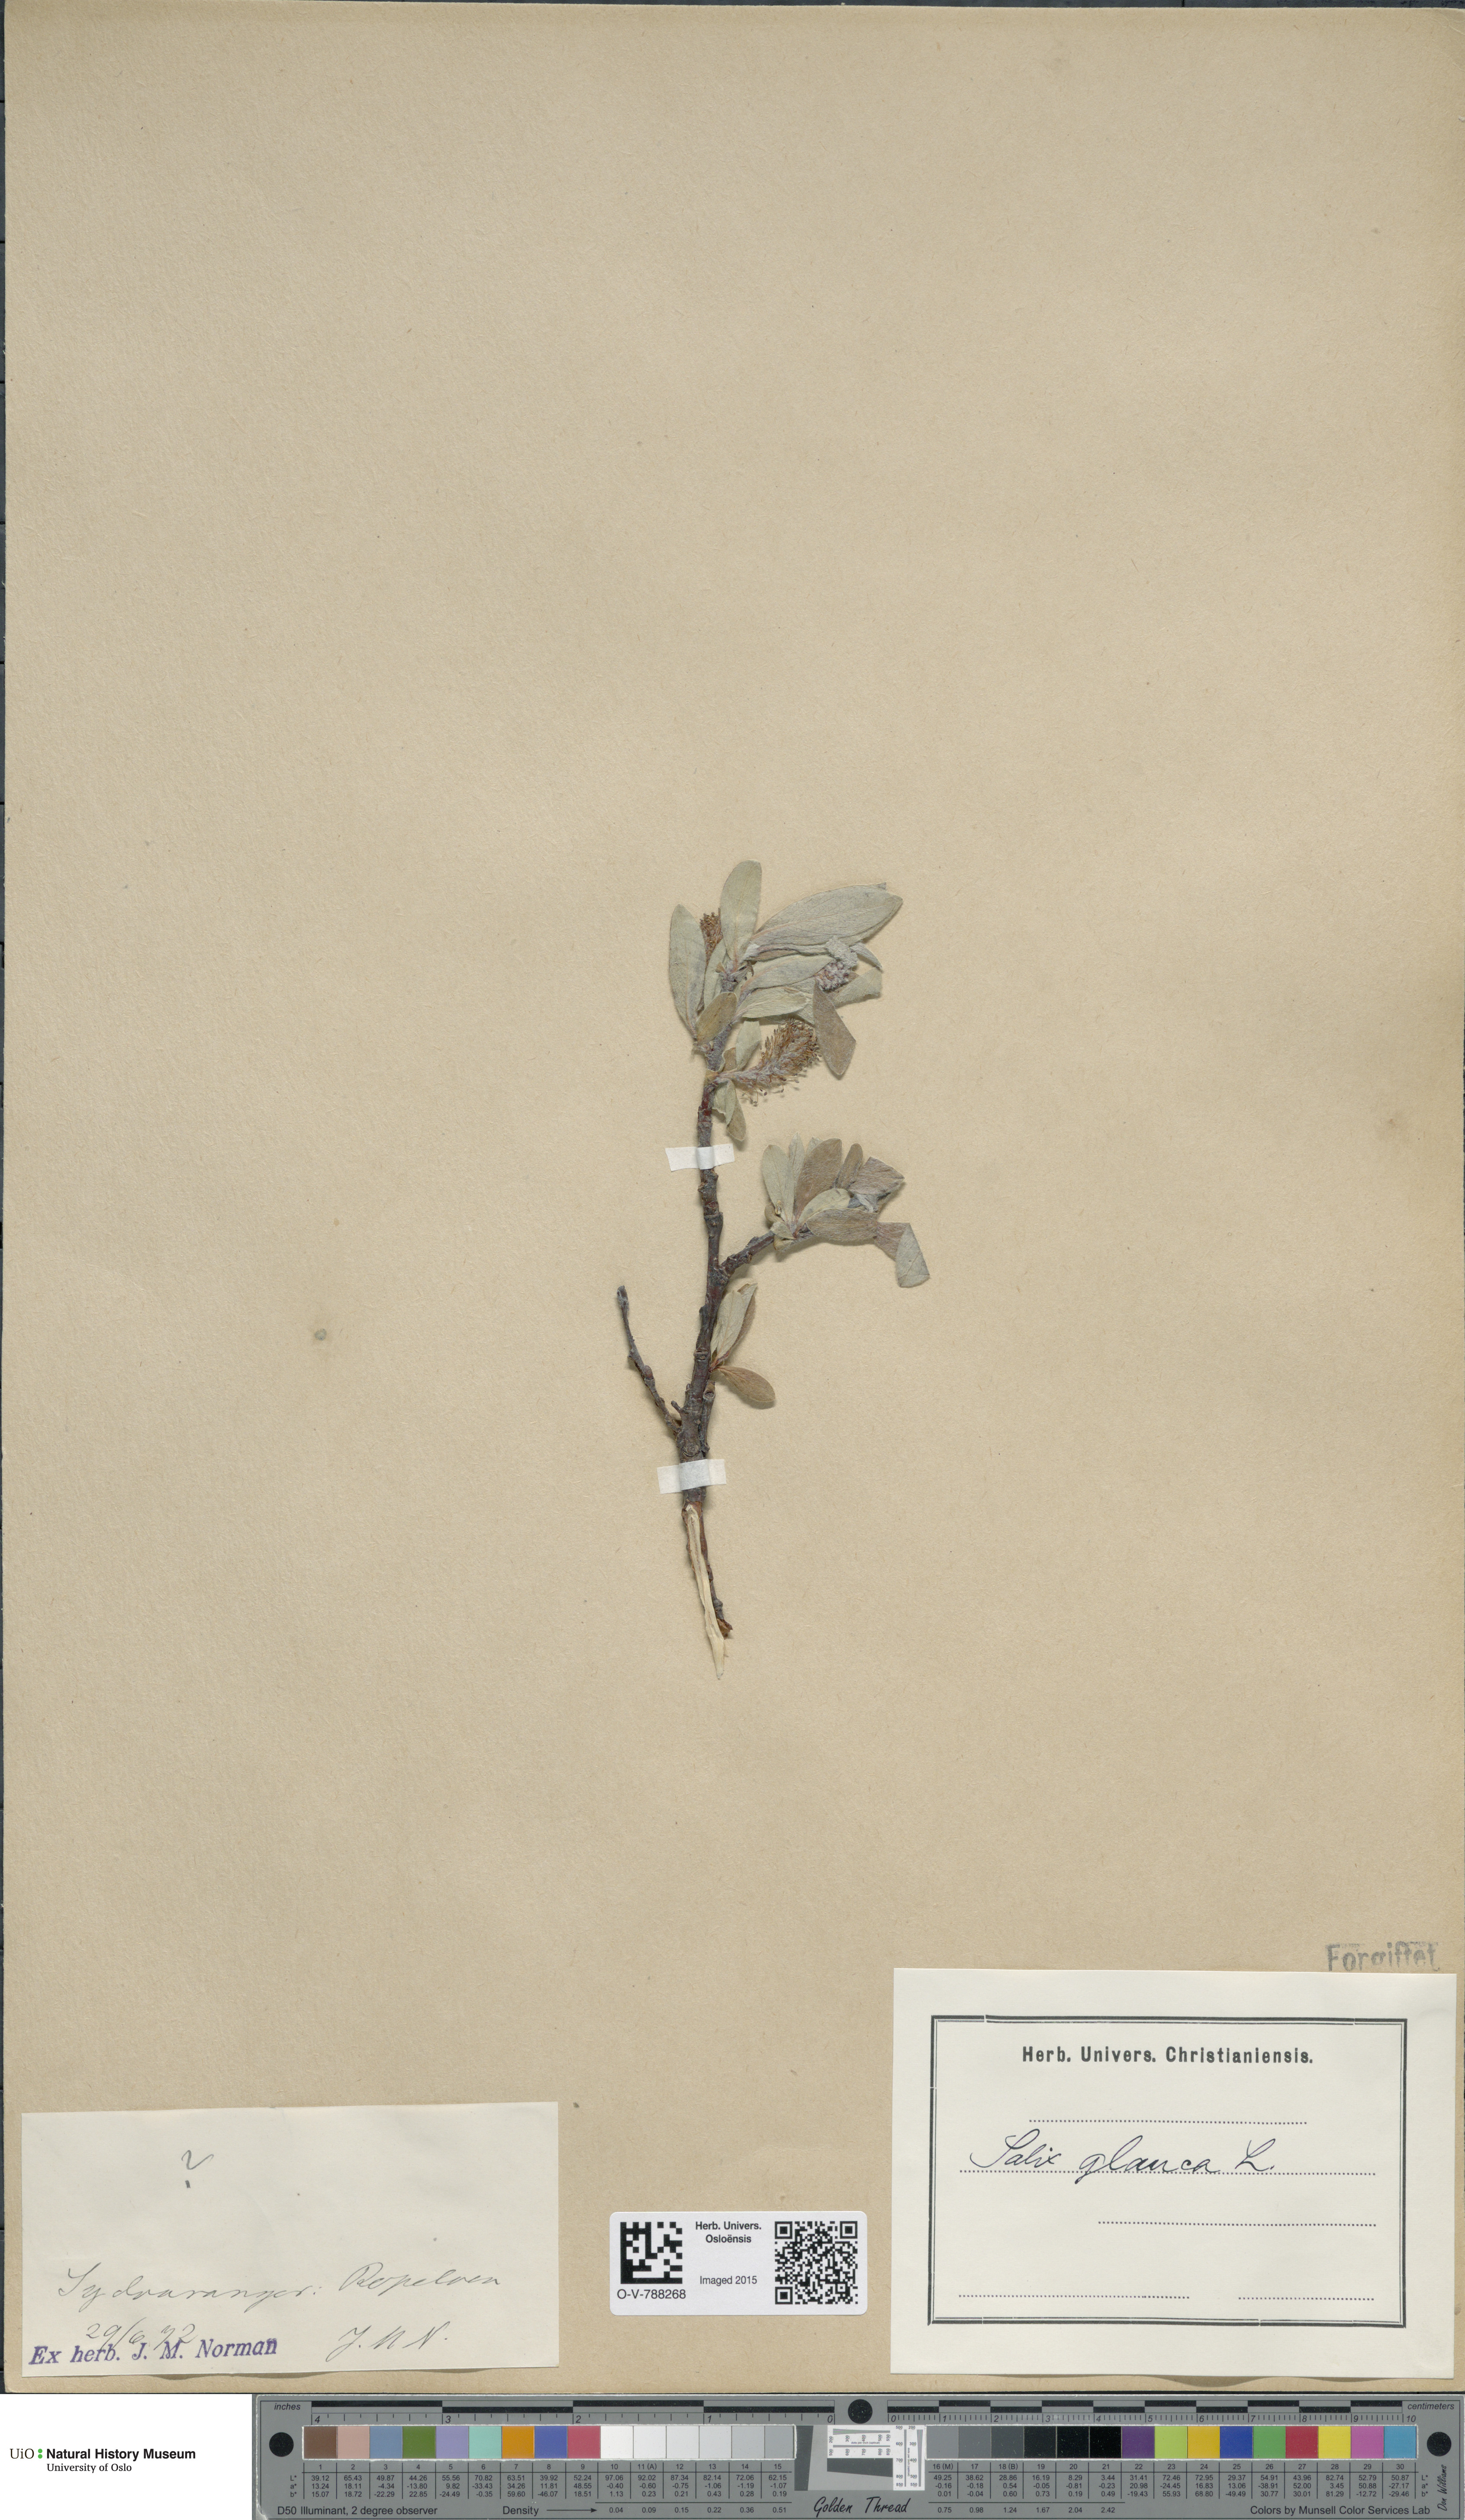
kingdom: Plantae
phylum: Tracheophyta
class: Magnoliopsida
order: Malpighiales
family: Salicaceae
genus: Salix
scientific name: Salix glauca
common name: Glaucous willow
